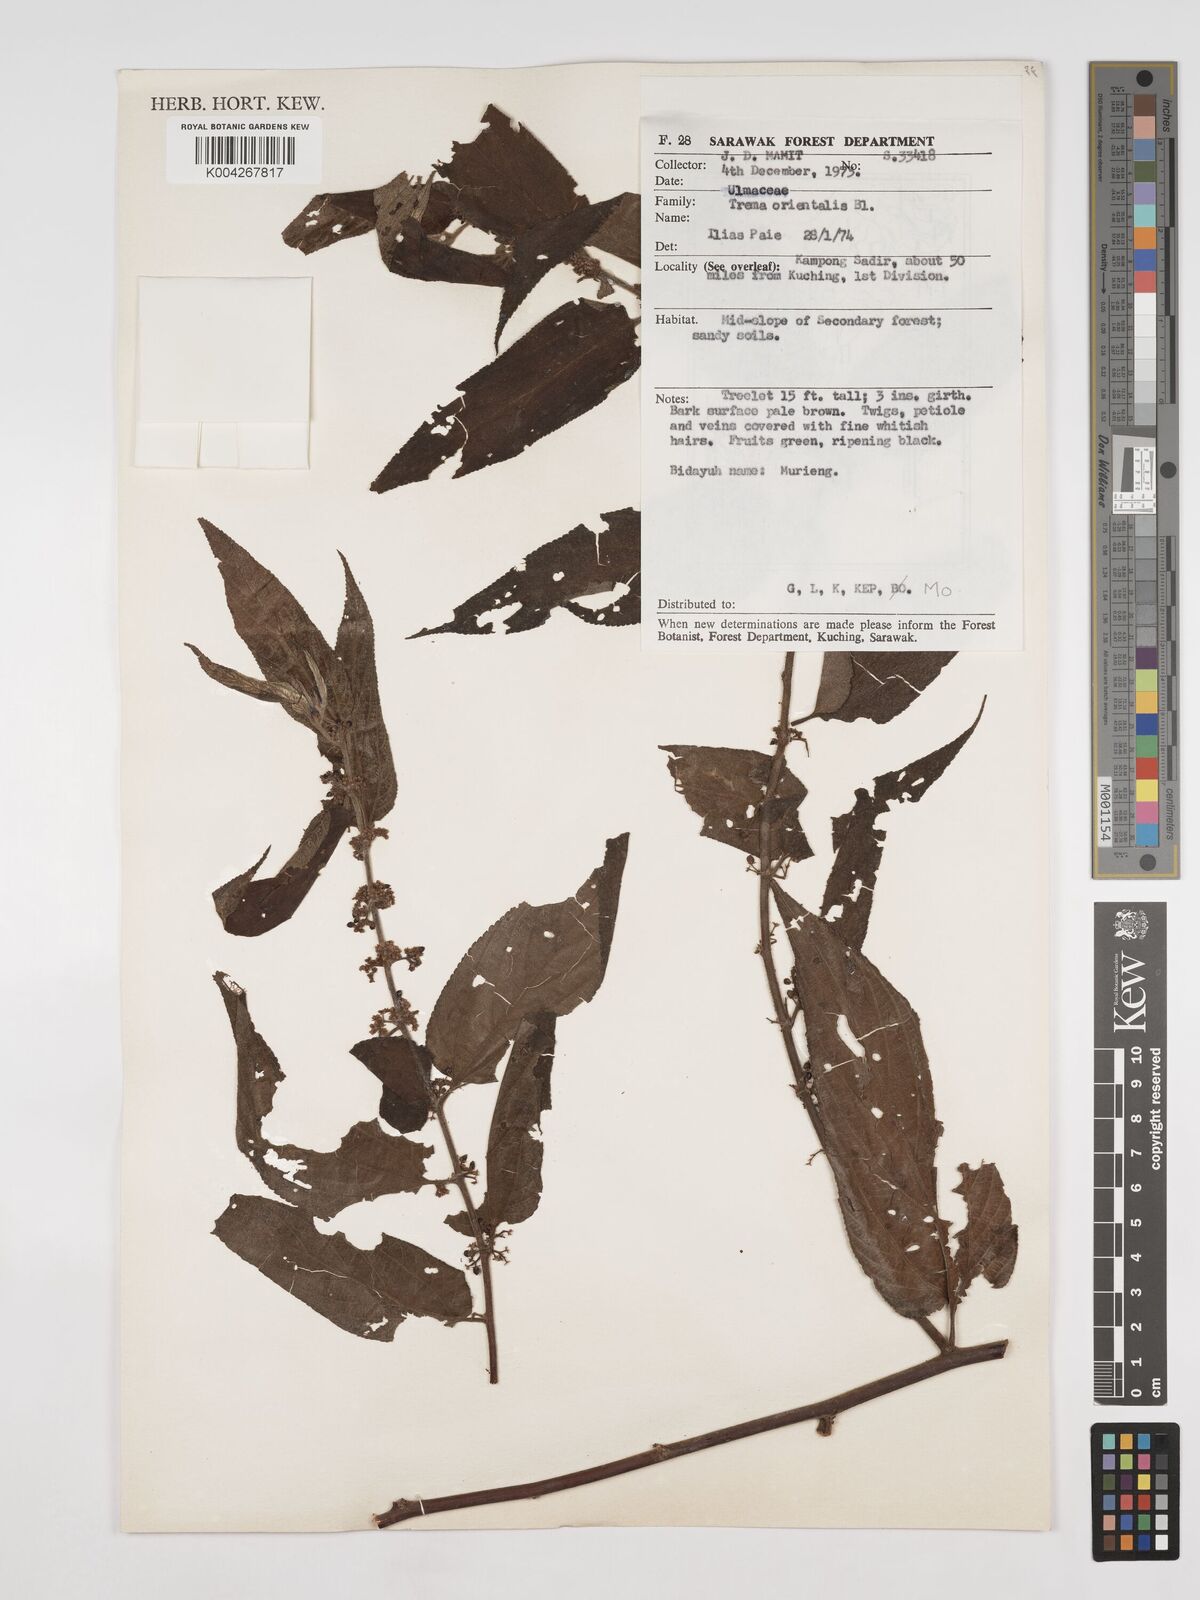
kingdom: Plantae
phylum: Tracheophyta
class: Magnoliopsida
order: Rosales
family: Cannabaceae
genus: Trema
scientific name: Trema orientale
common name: Indian charcoal tree
